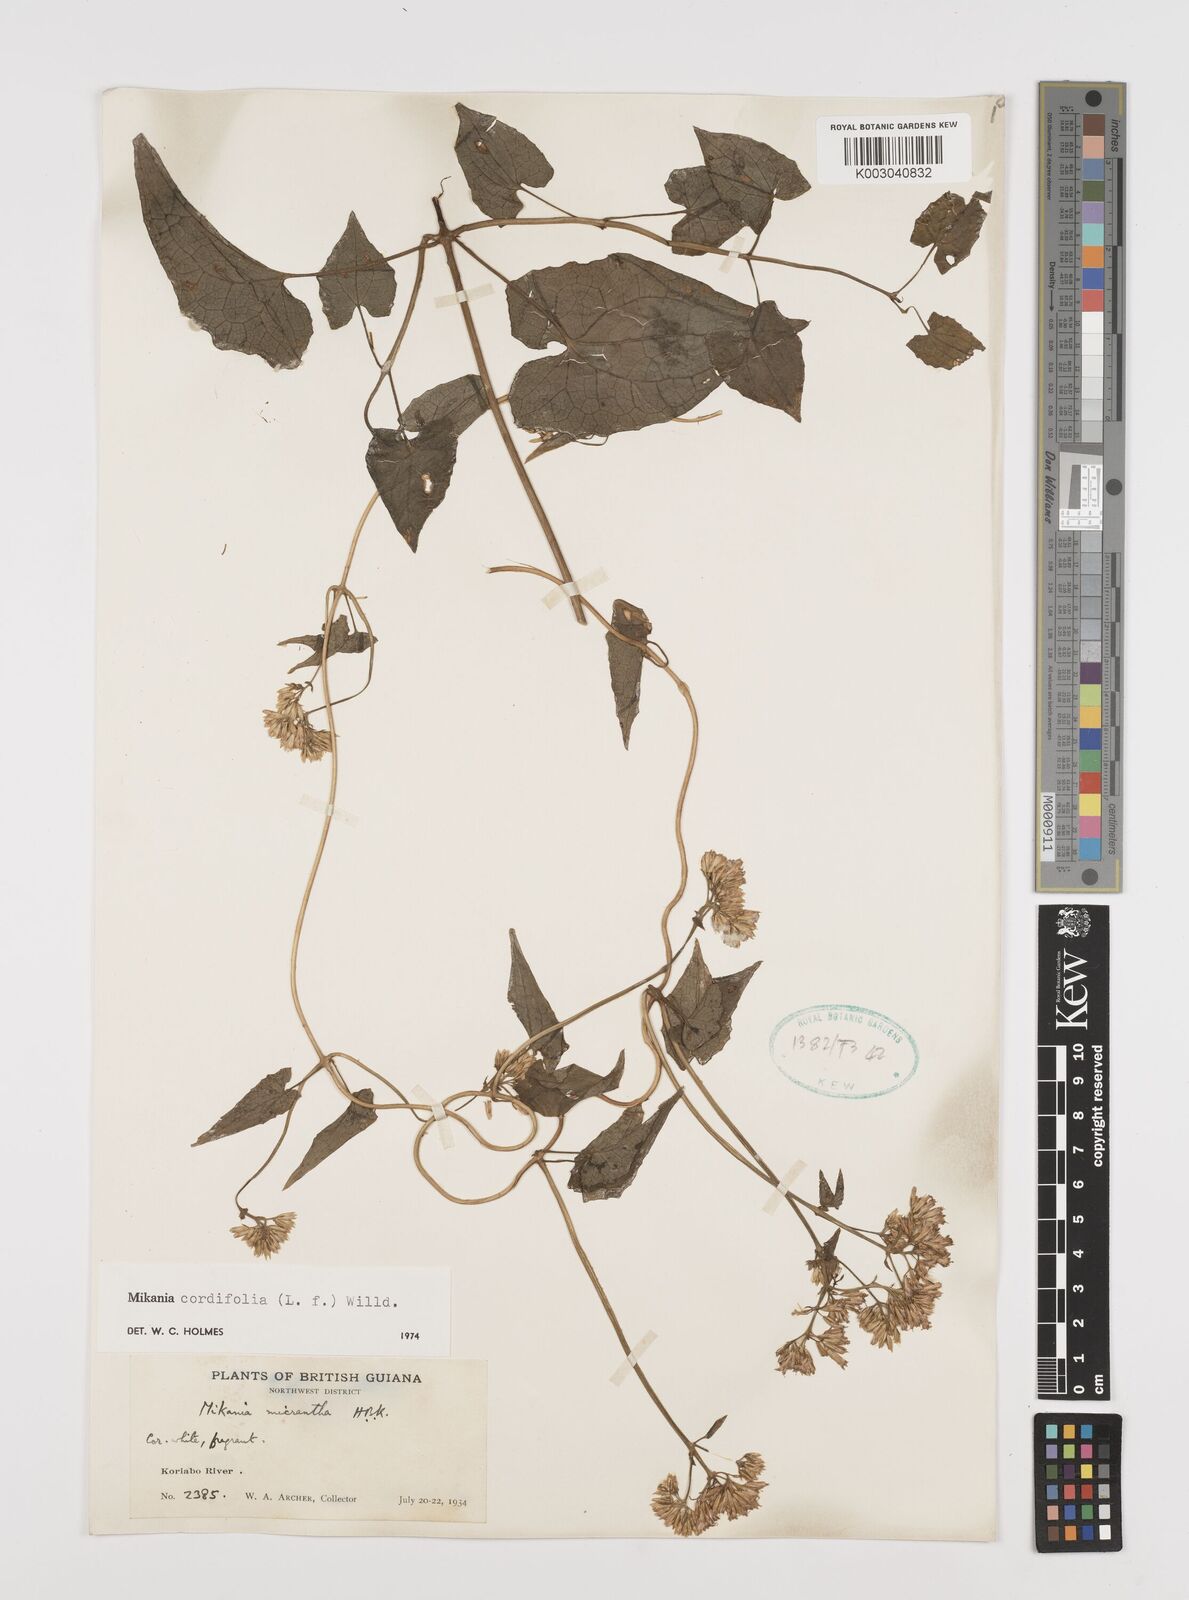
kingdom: Plantae
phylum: Tracheophyta
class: Magnoliopsida
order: Asterales
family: Asteraceae
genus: Mikania
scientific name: Mikania cordifolia
